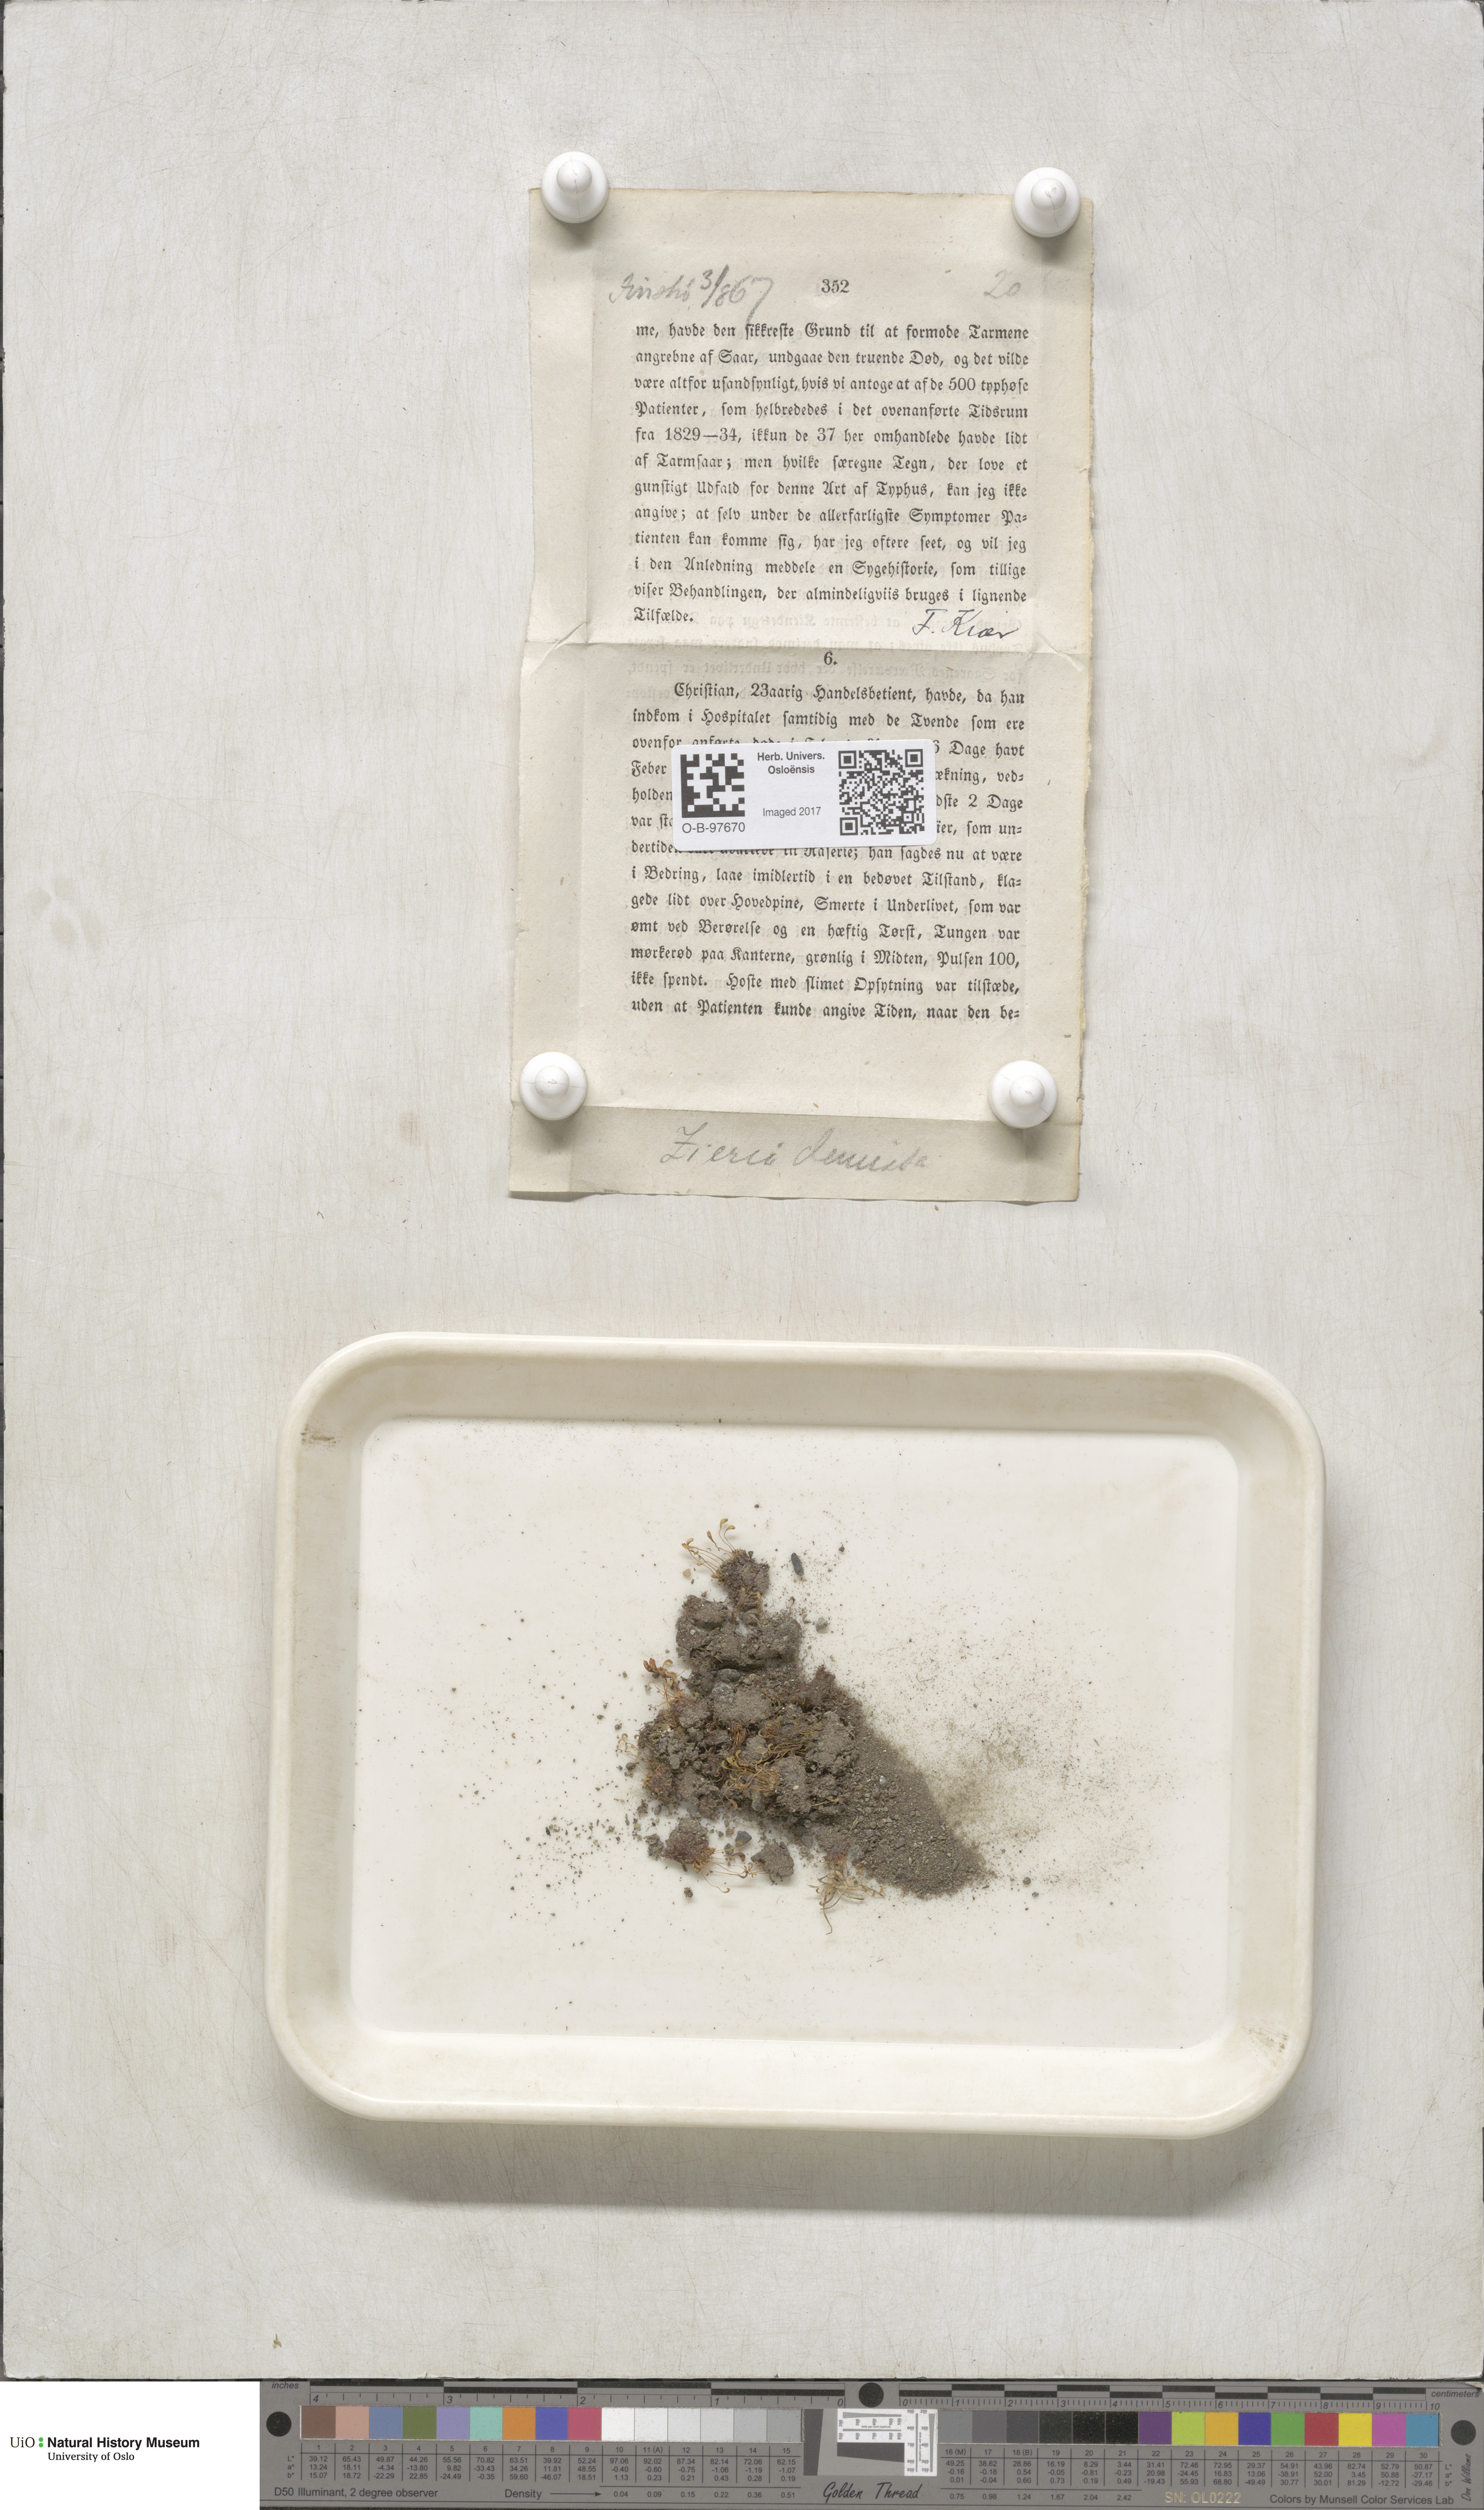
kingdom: Plantae
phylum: Bryophyta
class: Bryopsida
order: Bryales
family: Bryaceae
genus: Plagiobryum
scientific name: Plagiobryum demissum
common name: Drooping hump moss
